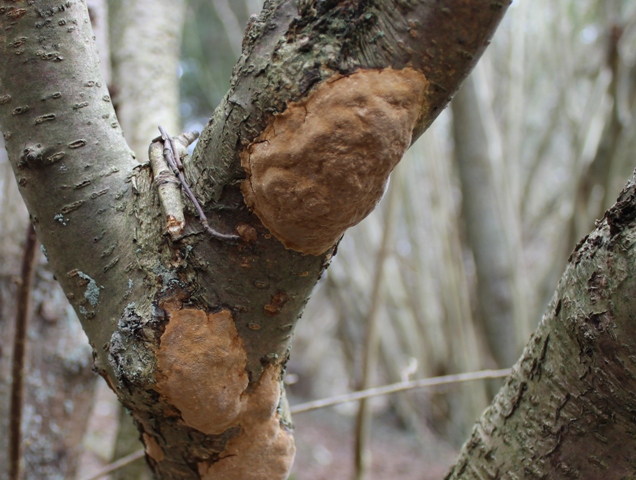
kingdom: Fungi
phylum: Basidiomycota
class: Agaricomycetes
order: Hymenochaetales
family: Hymenochaetaceae
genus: Fuscoporia
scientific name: Fuscoporia ferrea
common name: skorpe-ildporesvamp
